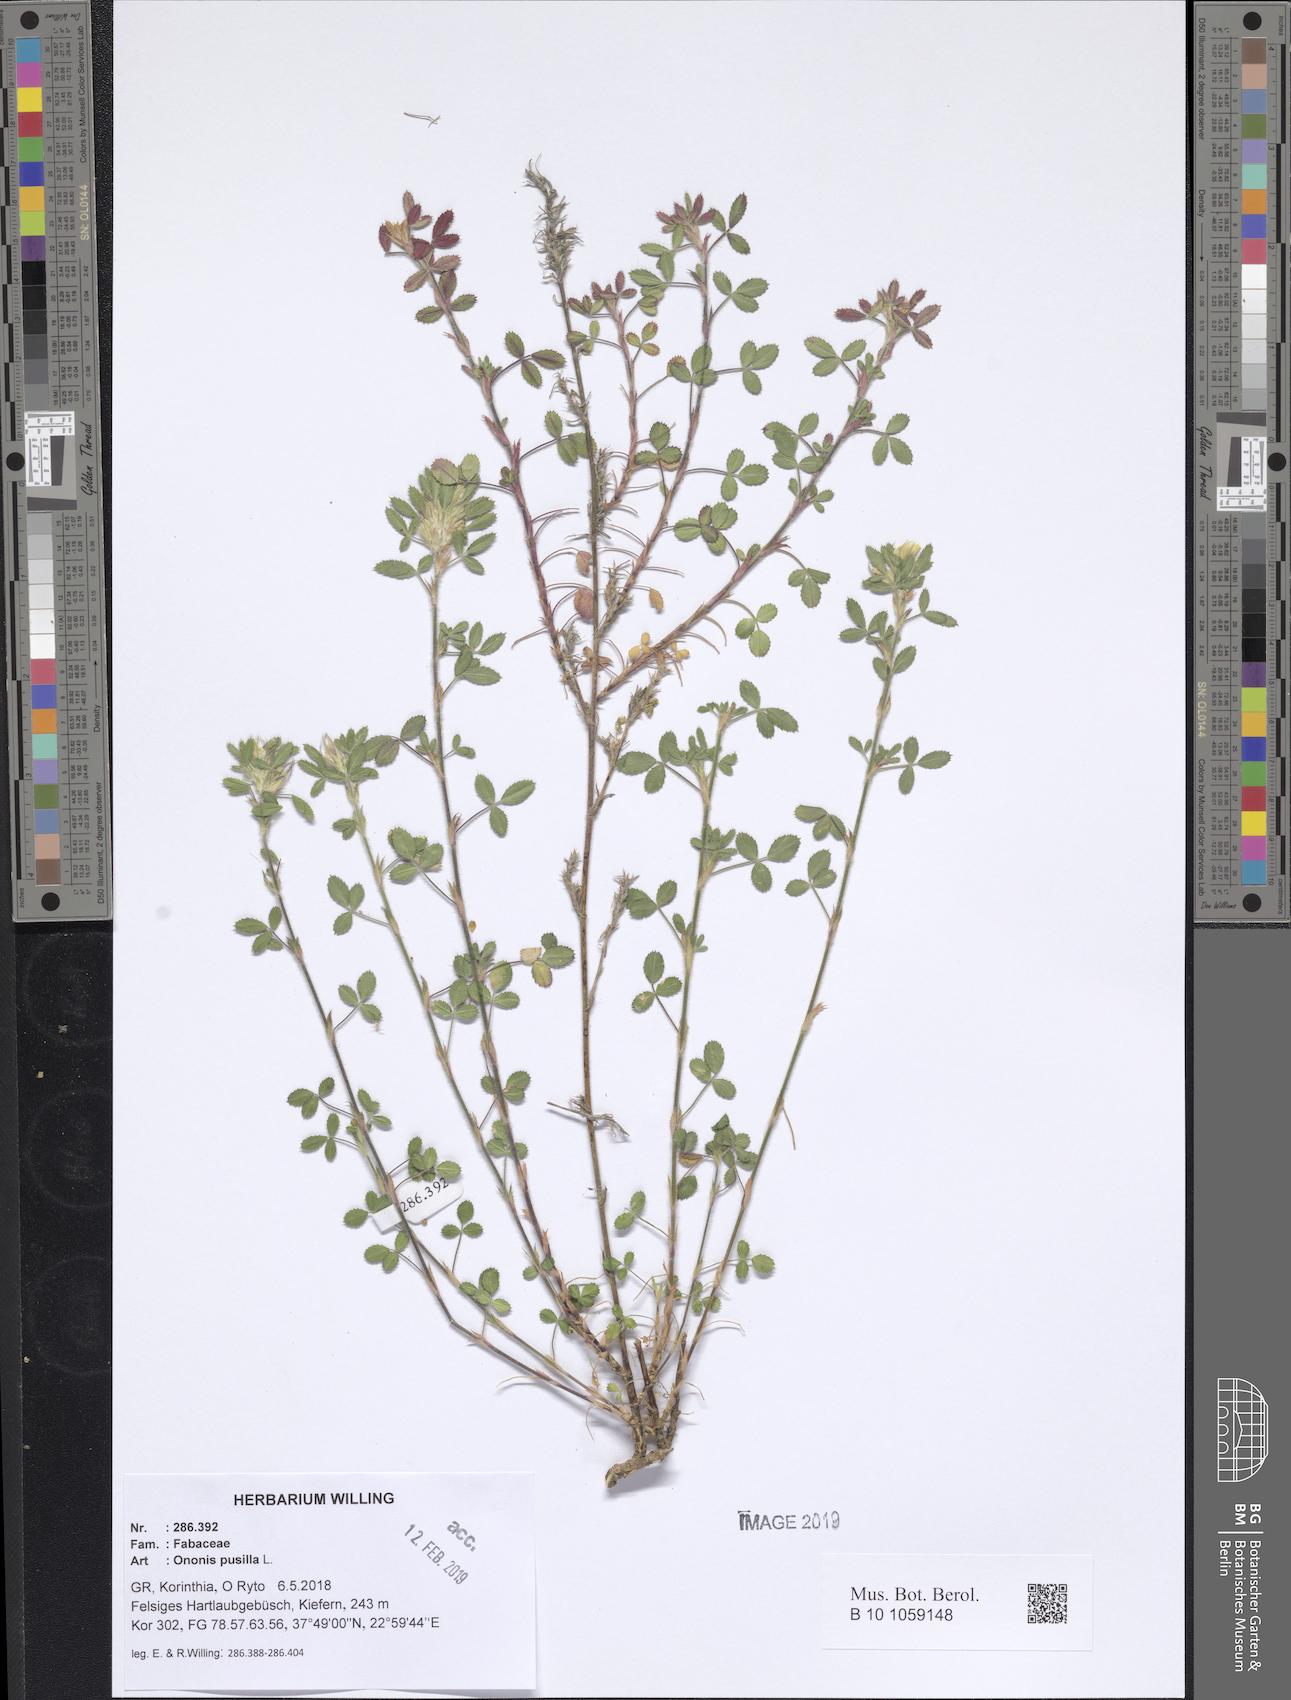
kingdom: Plantae
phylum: Tracheophyta
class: Magnoliopsida
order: Fabales
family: Fabaceae
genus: Ononis
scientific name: Ononis pusilla
